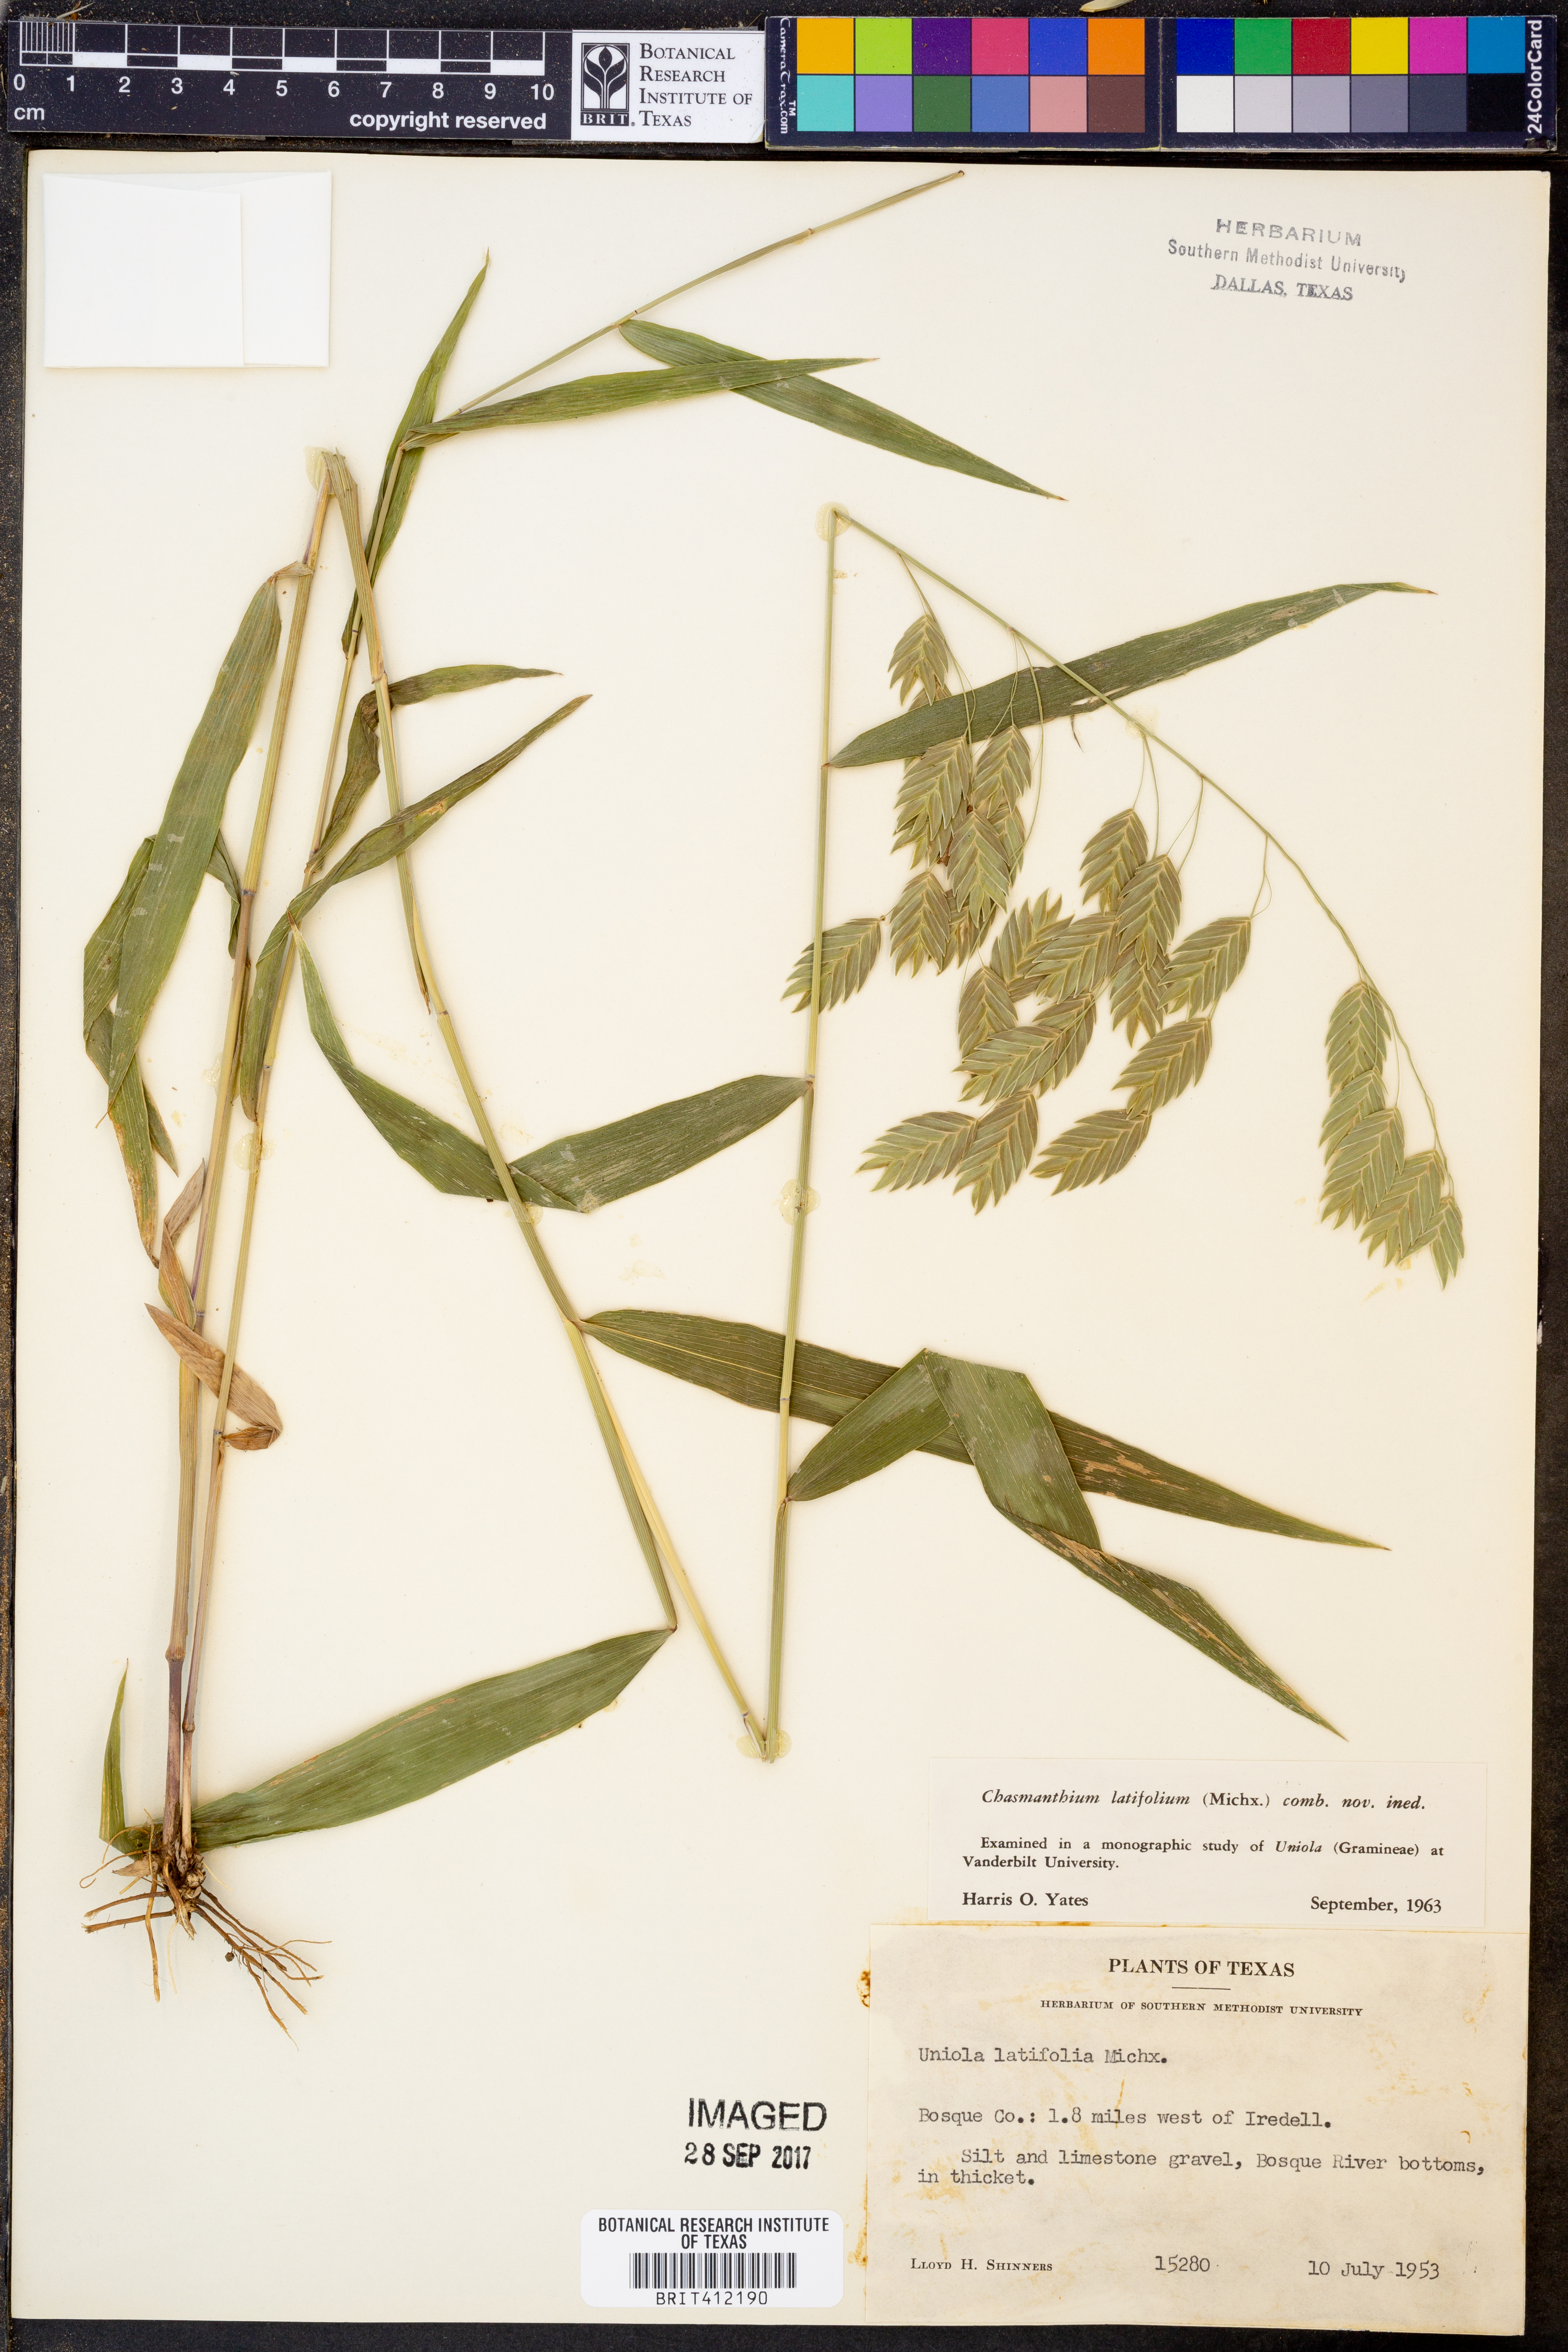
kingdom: Plantae
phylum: Tracheophyta
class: Liliopsida
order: Poales
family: Poaceae
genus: Chasmanthium
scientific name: Chasmanthium latifolium
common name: Broad-leaved chasmanthium
